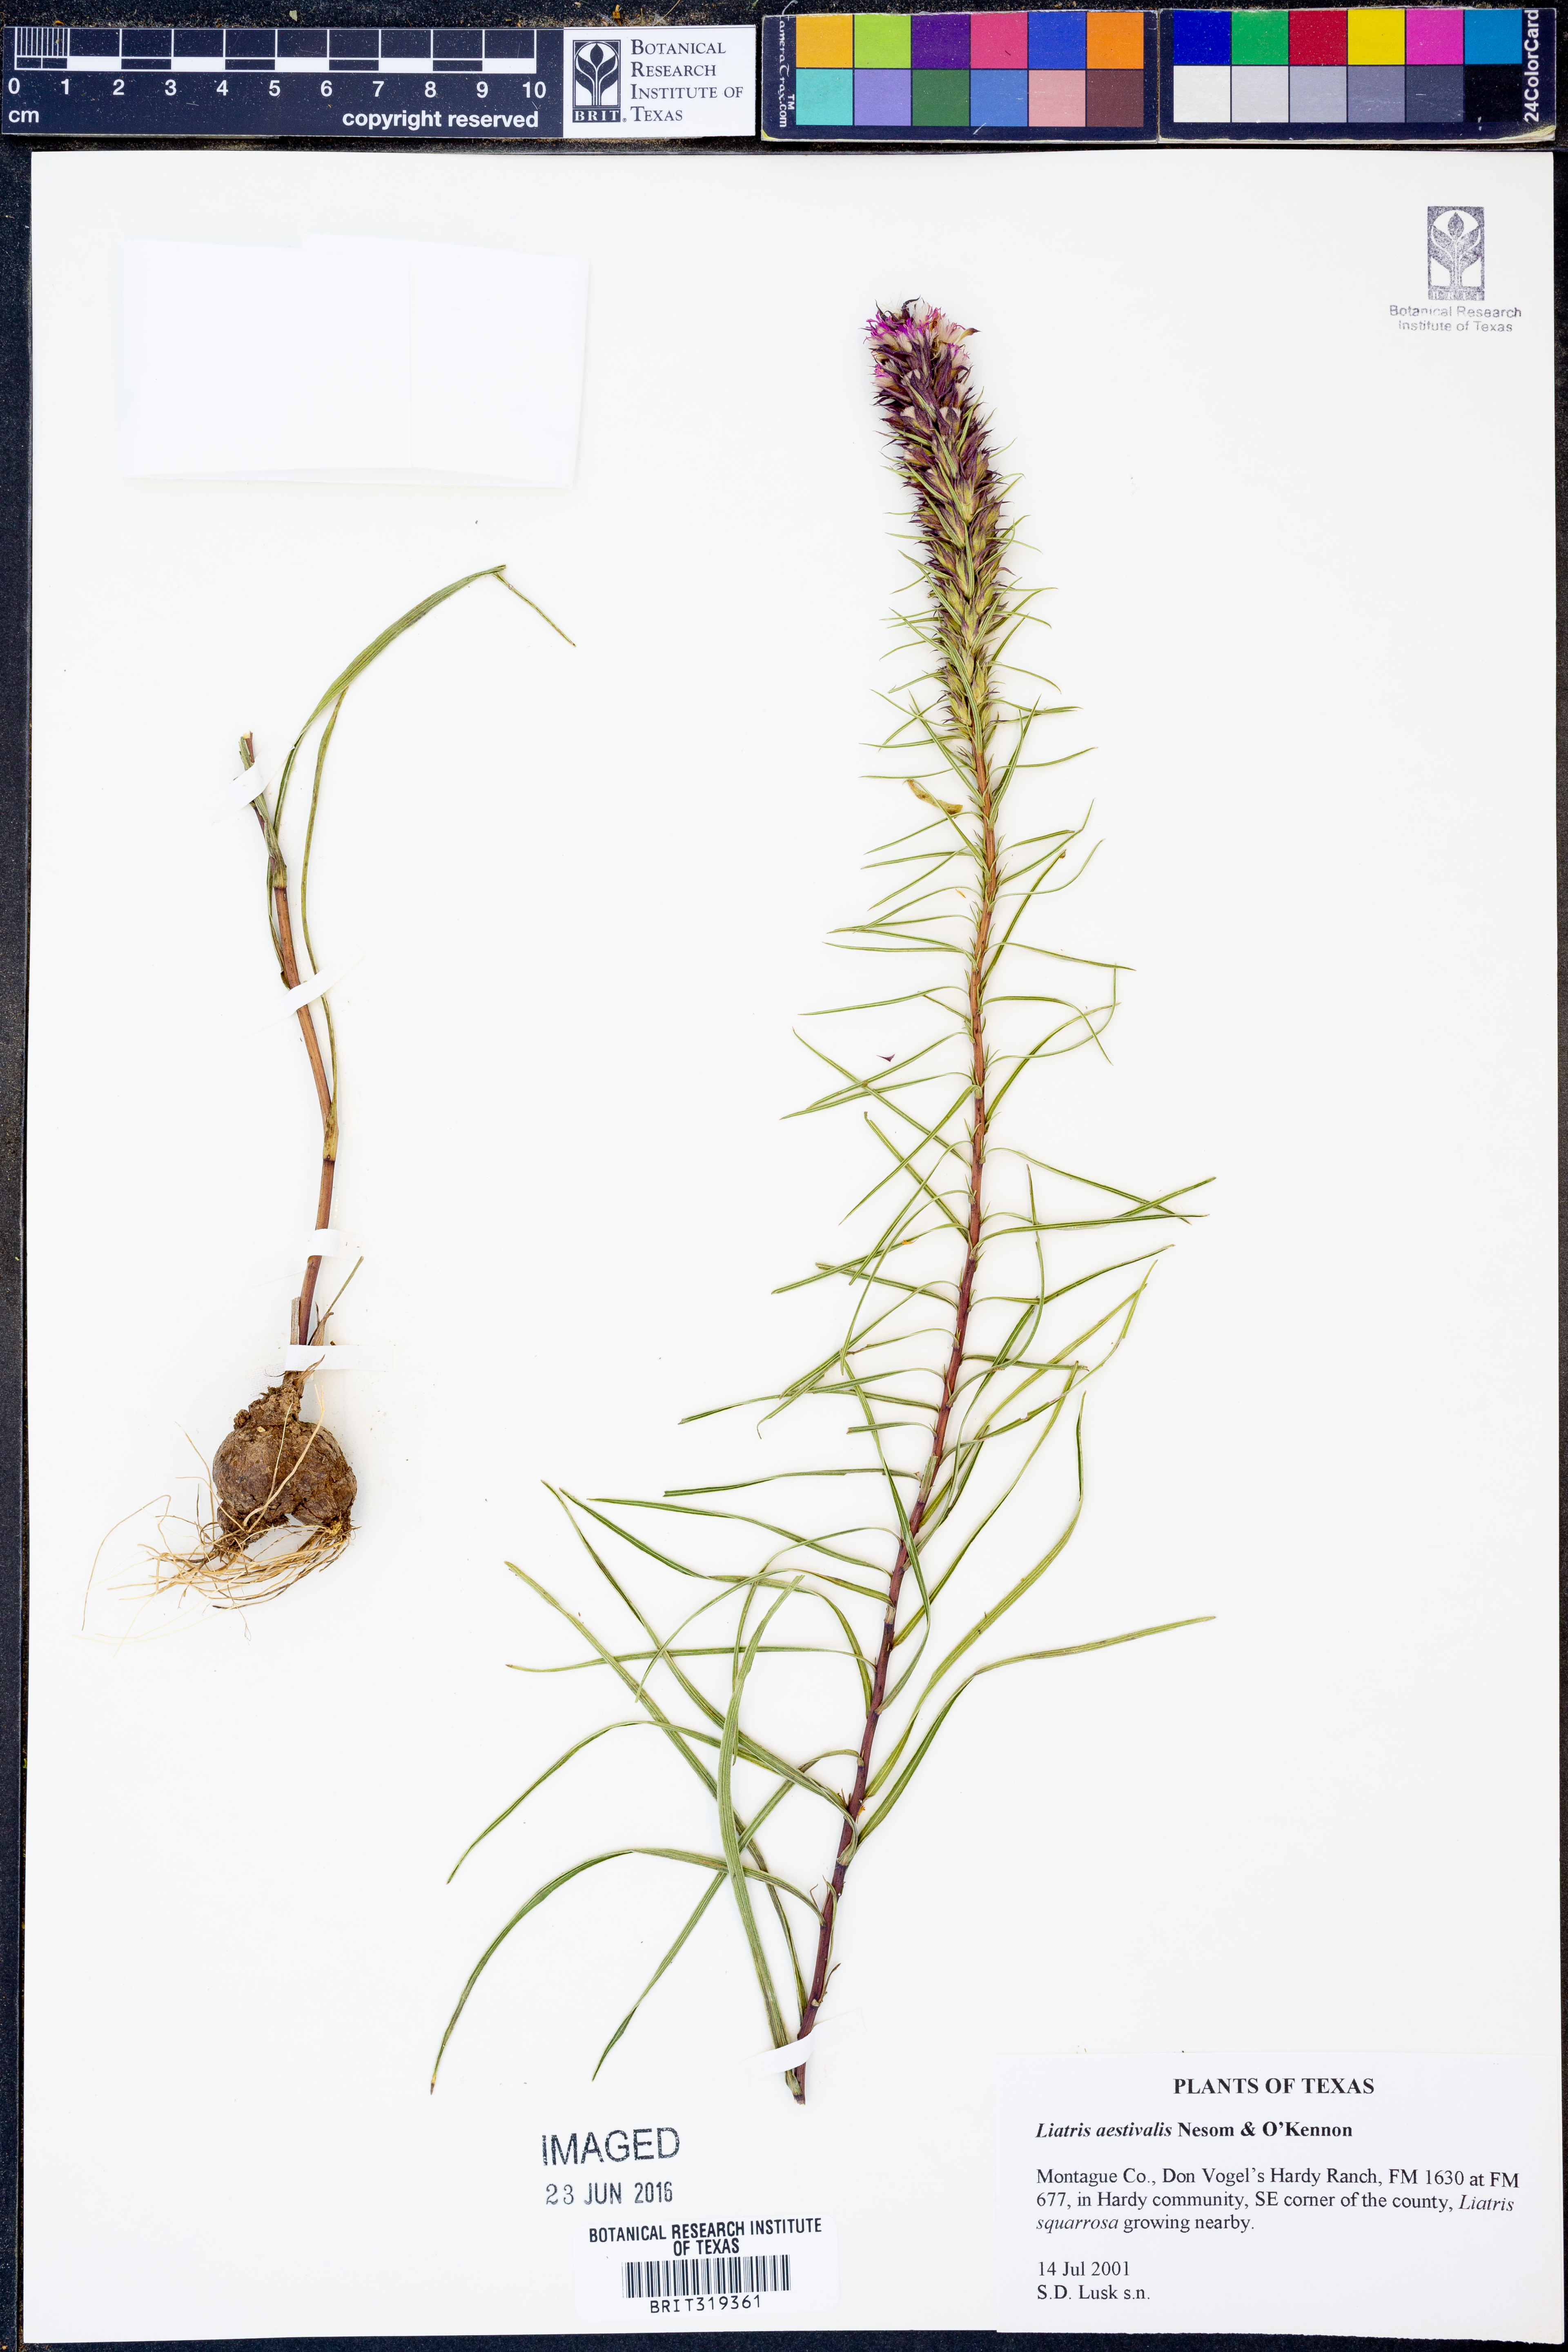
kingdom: Plantae
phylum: Tracheophyta
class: Magnoliopsida
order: Asterales
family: Asteraceae
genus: Liatris
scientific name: Liatris aestivalis
